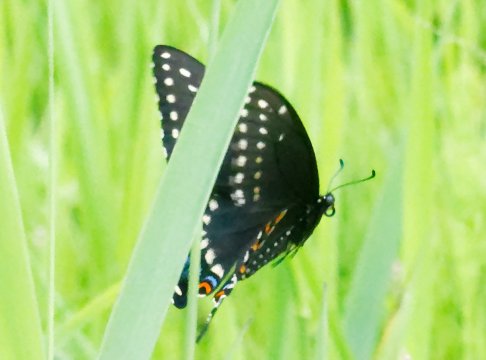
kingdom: Animalia
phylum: Arthropoda
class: Insecta
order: Lepidoptera
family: Papilionidae
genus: Papilio
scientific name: Papilio polyxenes
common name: Black Swallowtail
